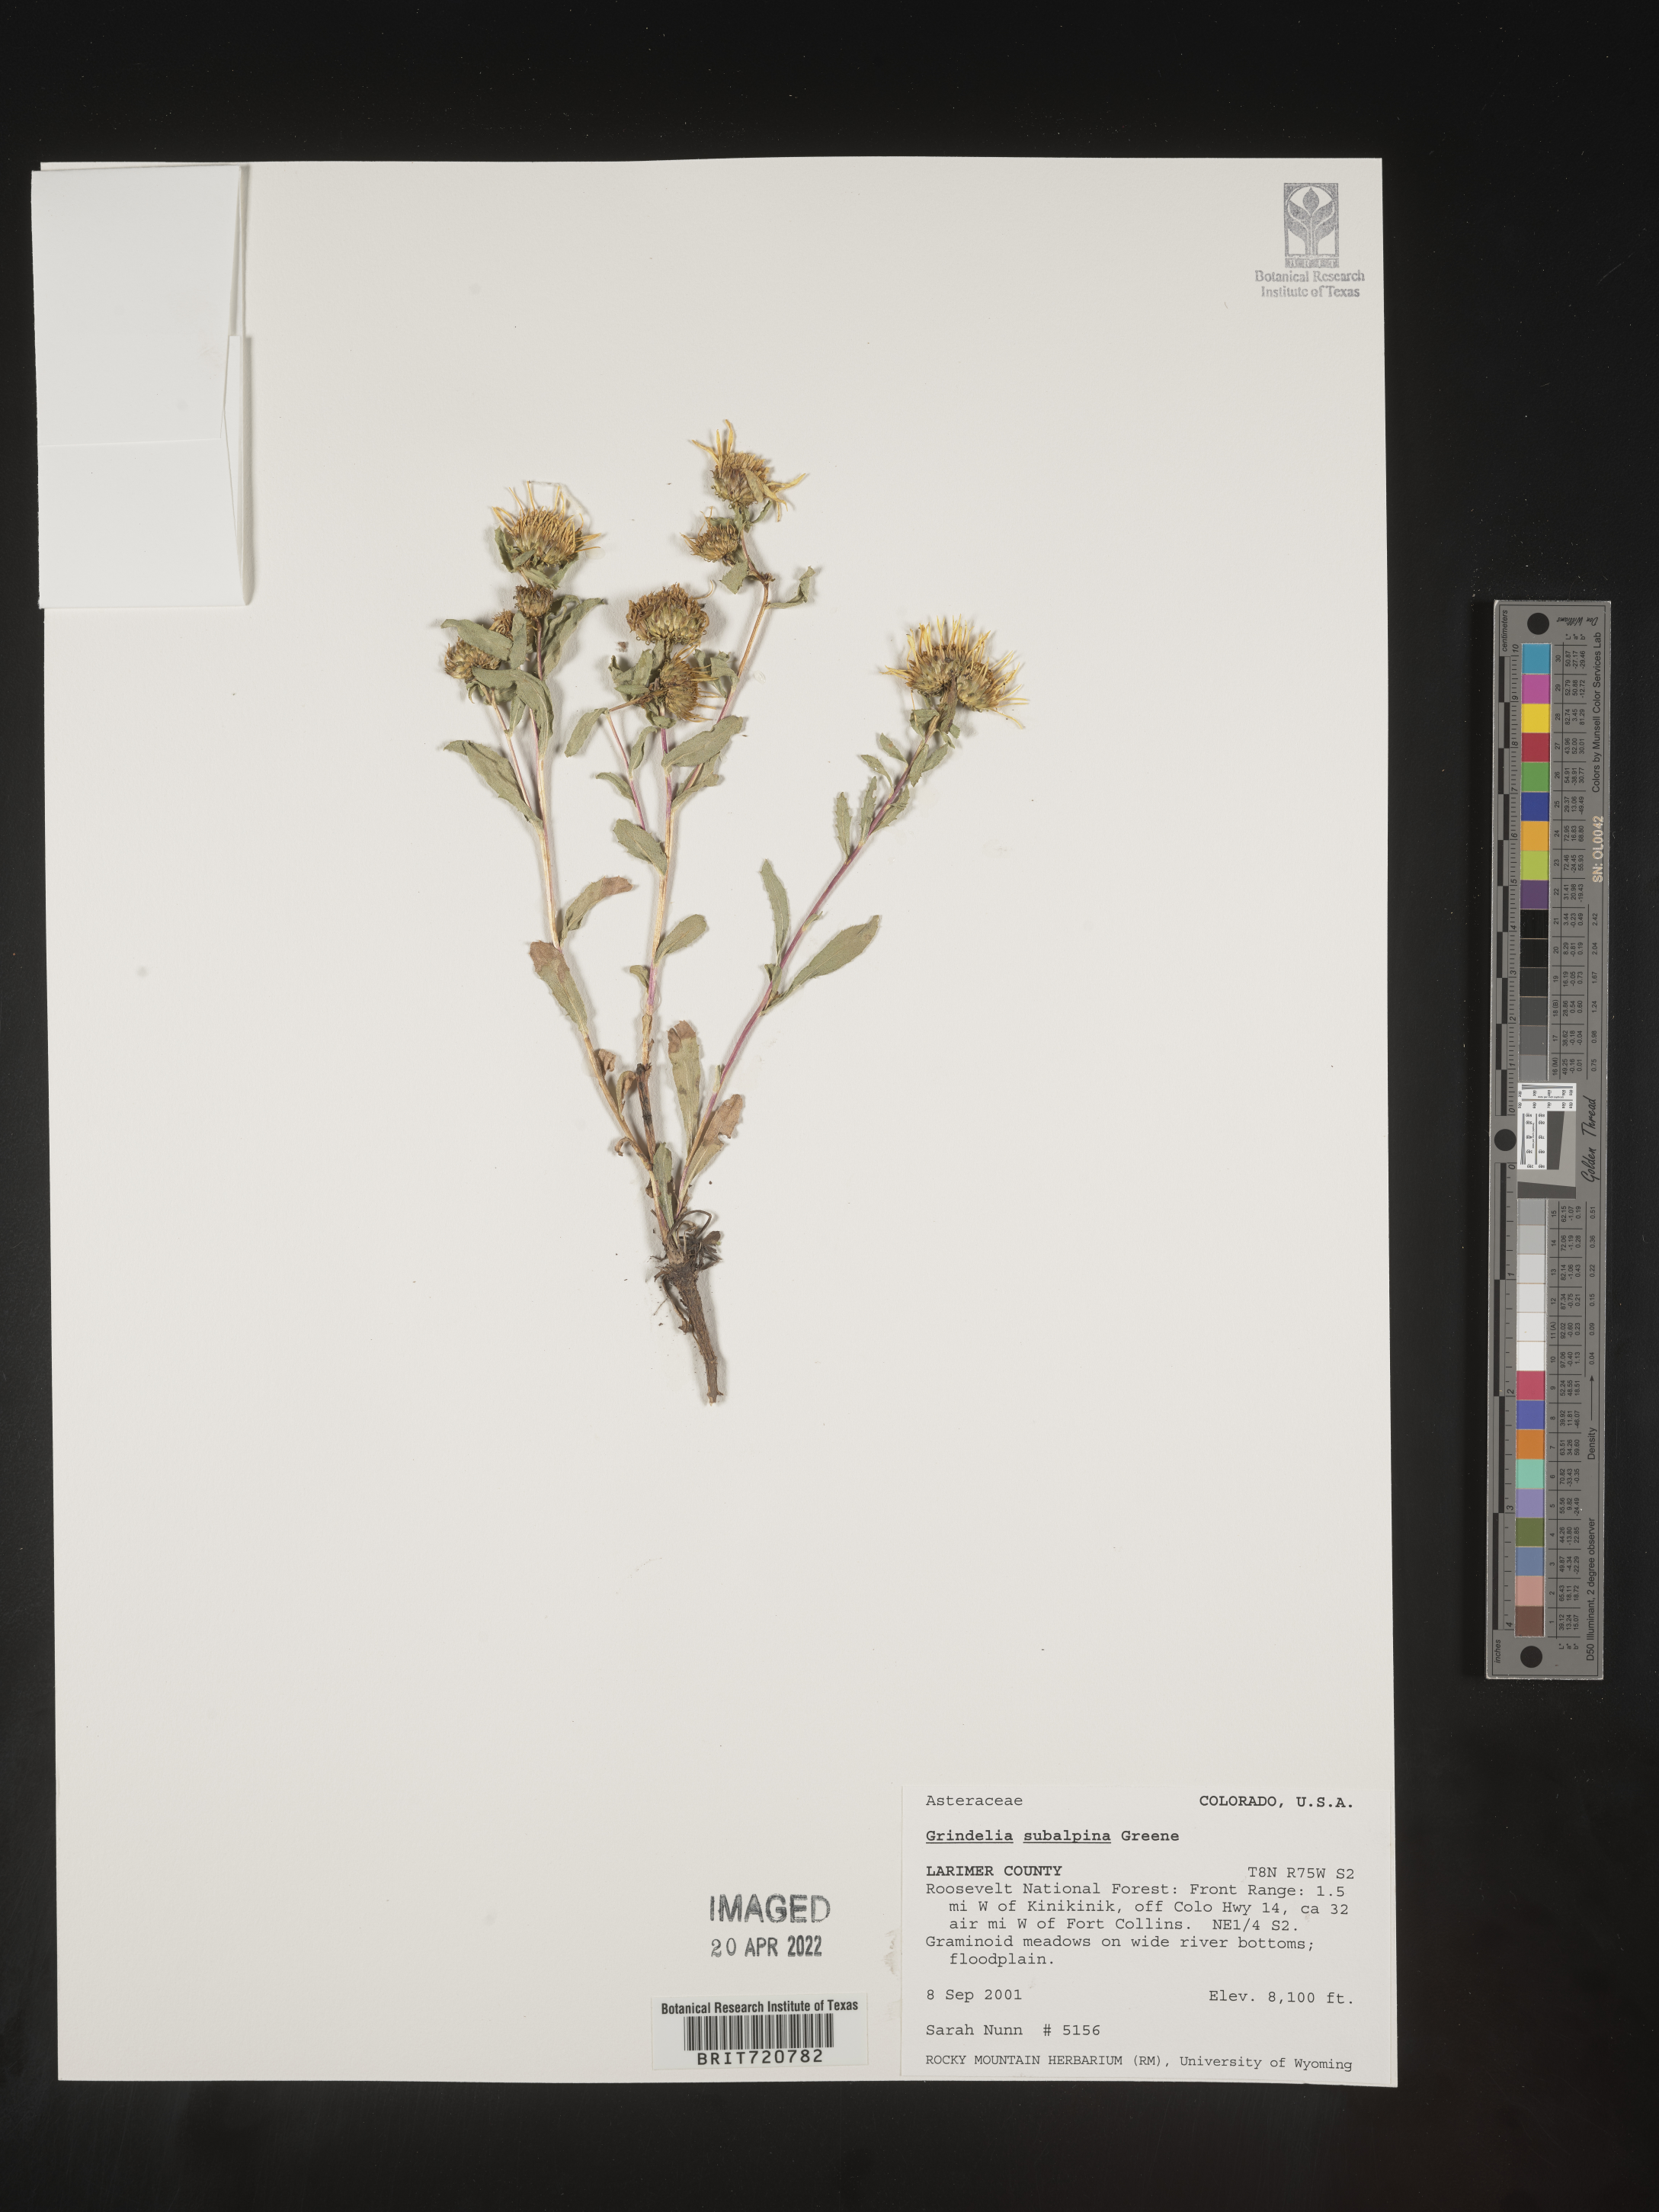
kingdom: Plantae
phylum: Tracheophyta
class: Magnoliopsida
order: Asterales
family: Asteraceae
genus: Grindelia
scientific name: Grindelia
